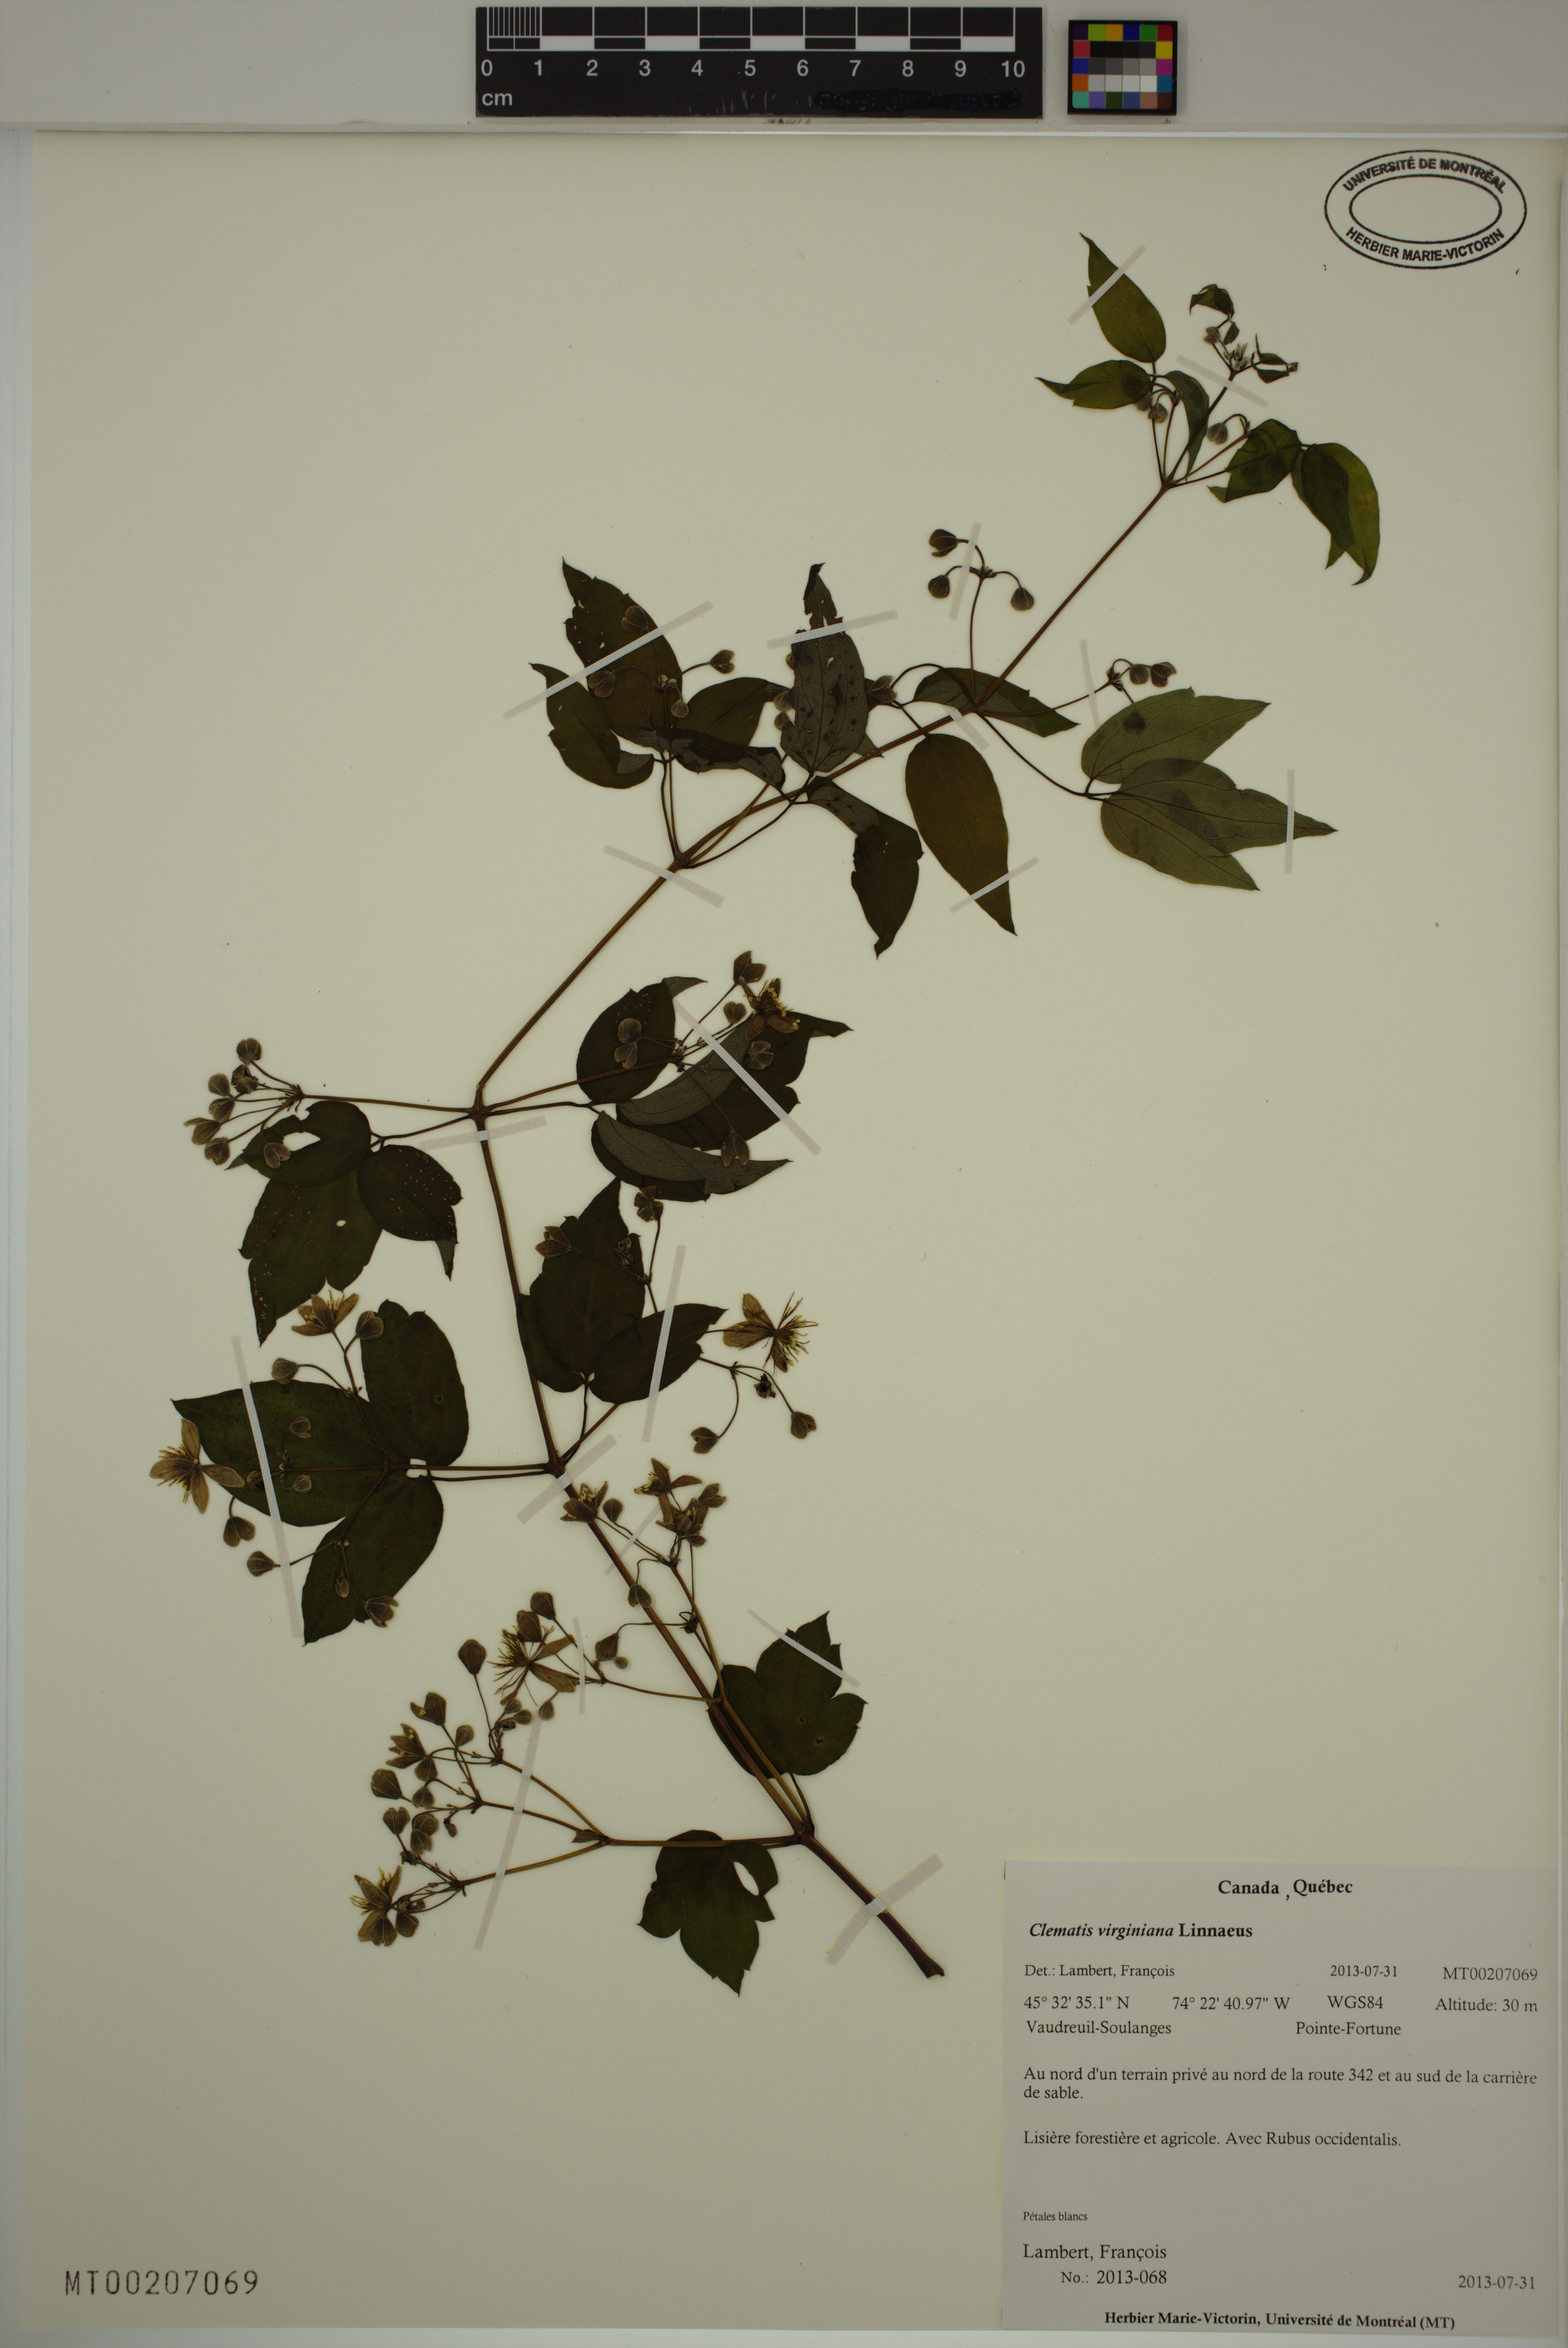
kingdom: Plantae
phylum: Tracheophyta
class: Magnoliopsida
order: Ranunculales
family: Ranunculaceae
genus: Clematis
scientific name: Clematis virginiana
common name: Virgin's-bower
